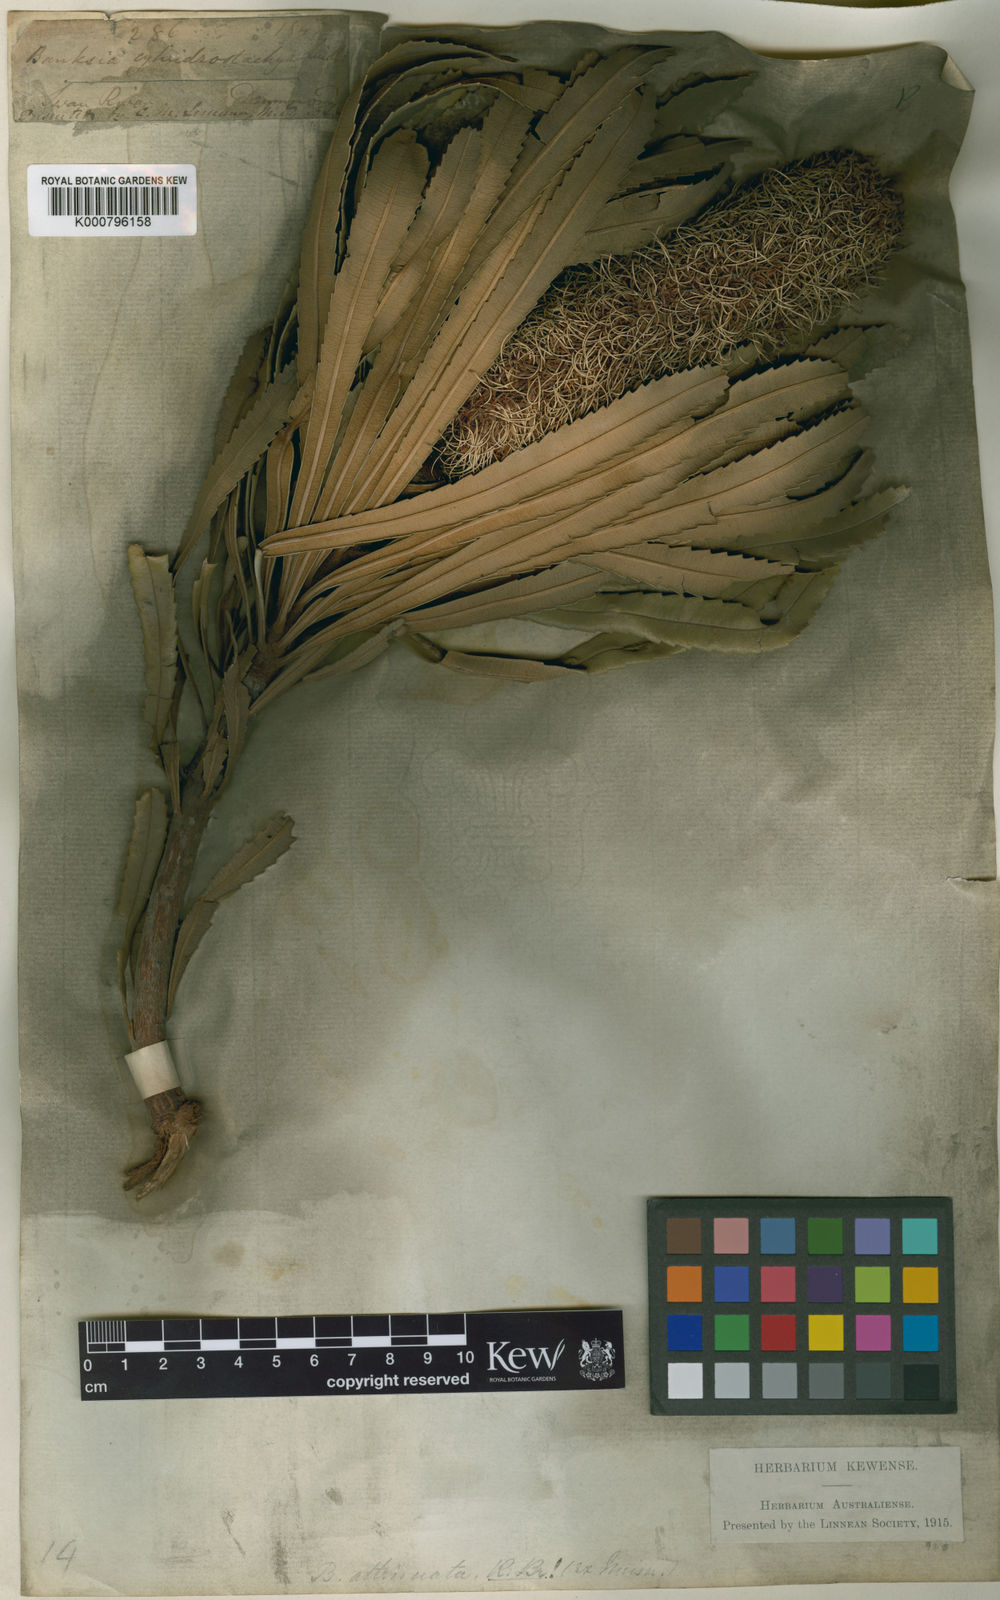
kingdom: Plantae
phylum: Tracheophyta
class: Magnoliopsida
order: Proteales
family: Proteaceae
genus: Banksia
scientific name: Banksia attenuata
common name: Coast banksia
